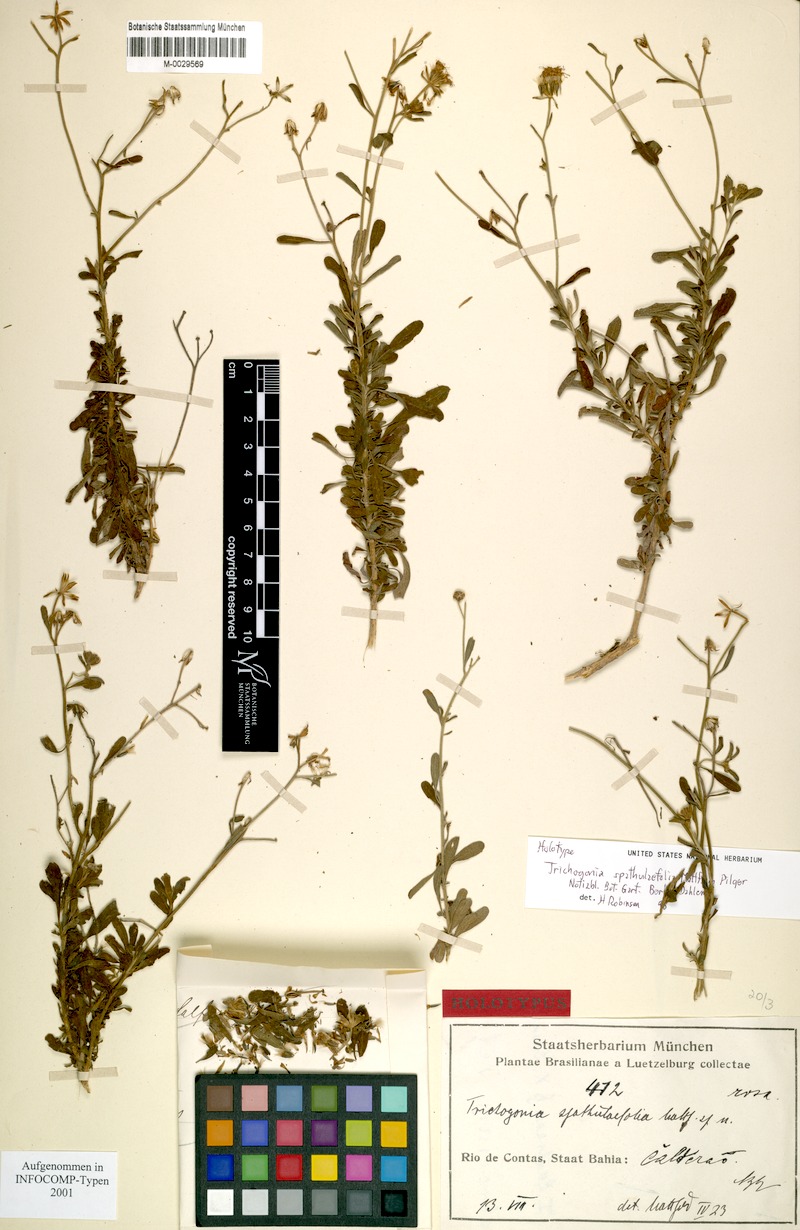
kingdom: Plantae
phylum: Tracheophyta
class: Magnoliopsida
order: Asterales
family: Asteraceae
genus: Trichogonia
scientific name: Trichogonia spathulaefolia
